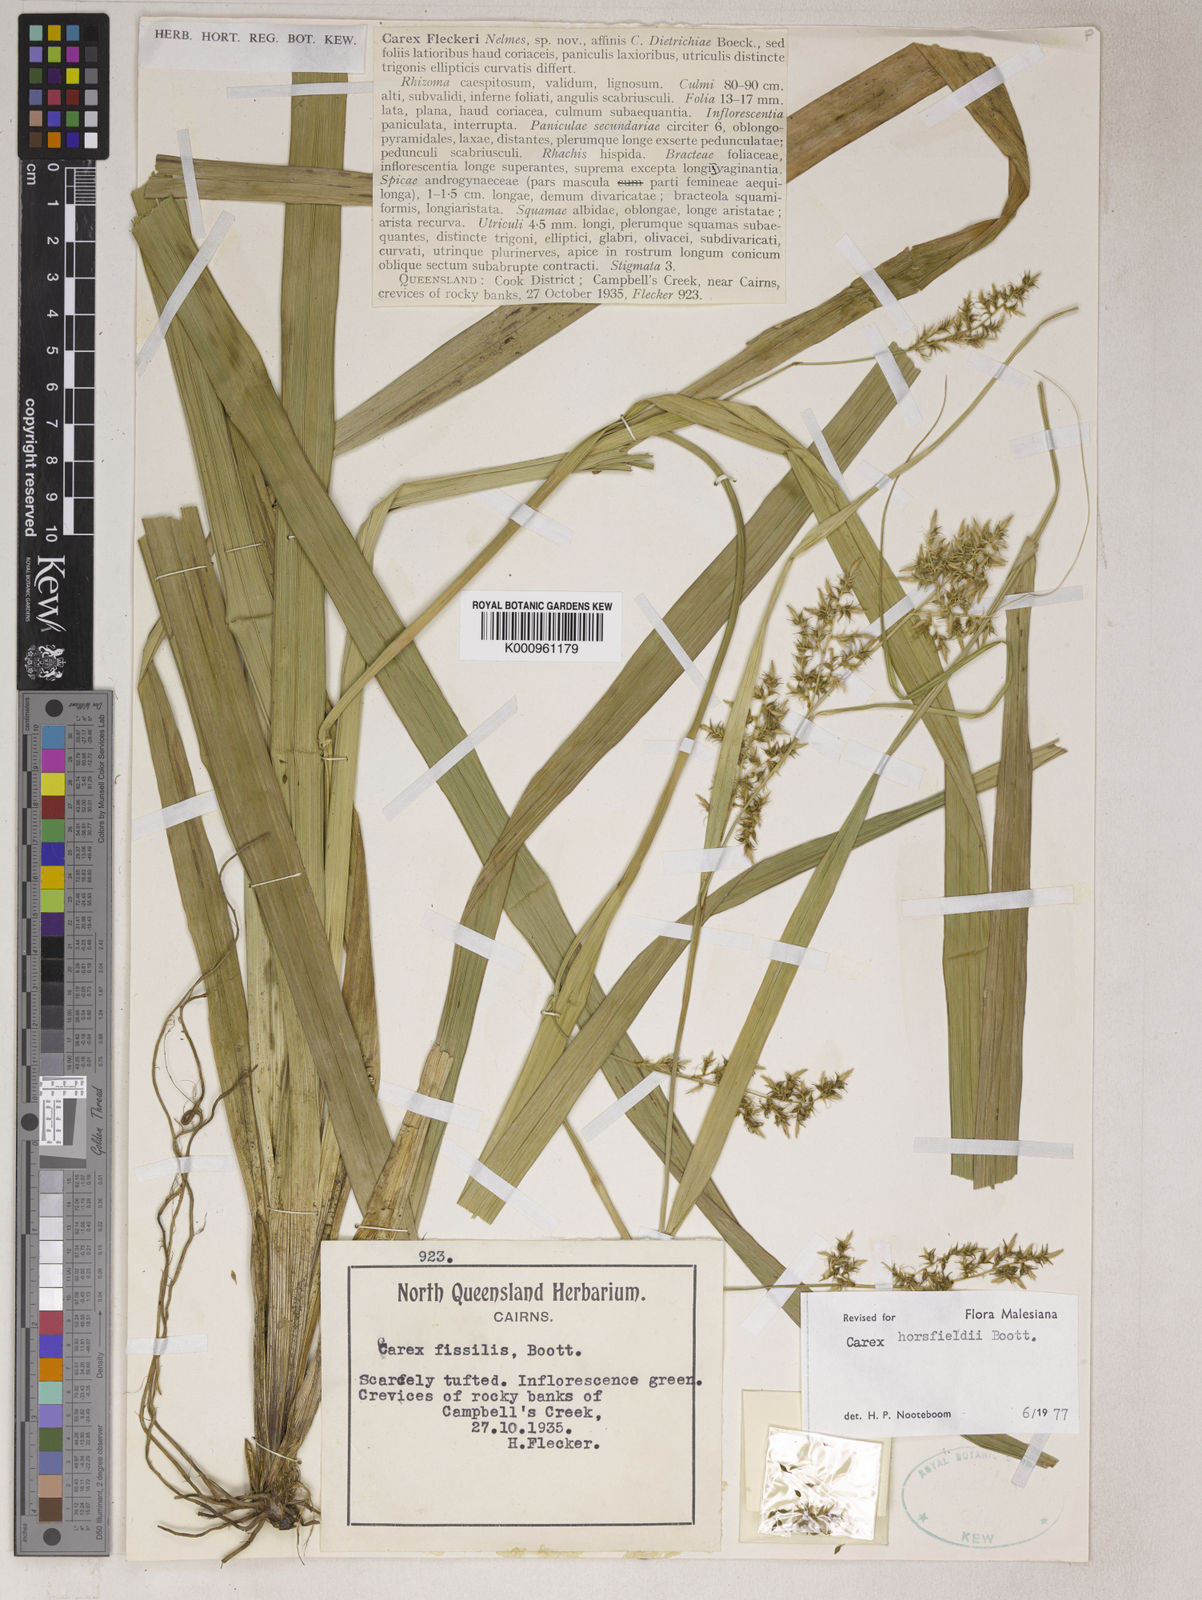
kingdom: Plantae
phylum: Tracheophyta
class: Liliopsida
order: Poales
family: Cyperaceae
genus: Carex
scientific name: Carex horsfieldii
